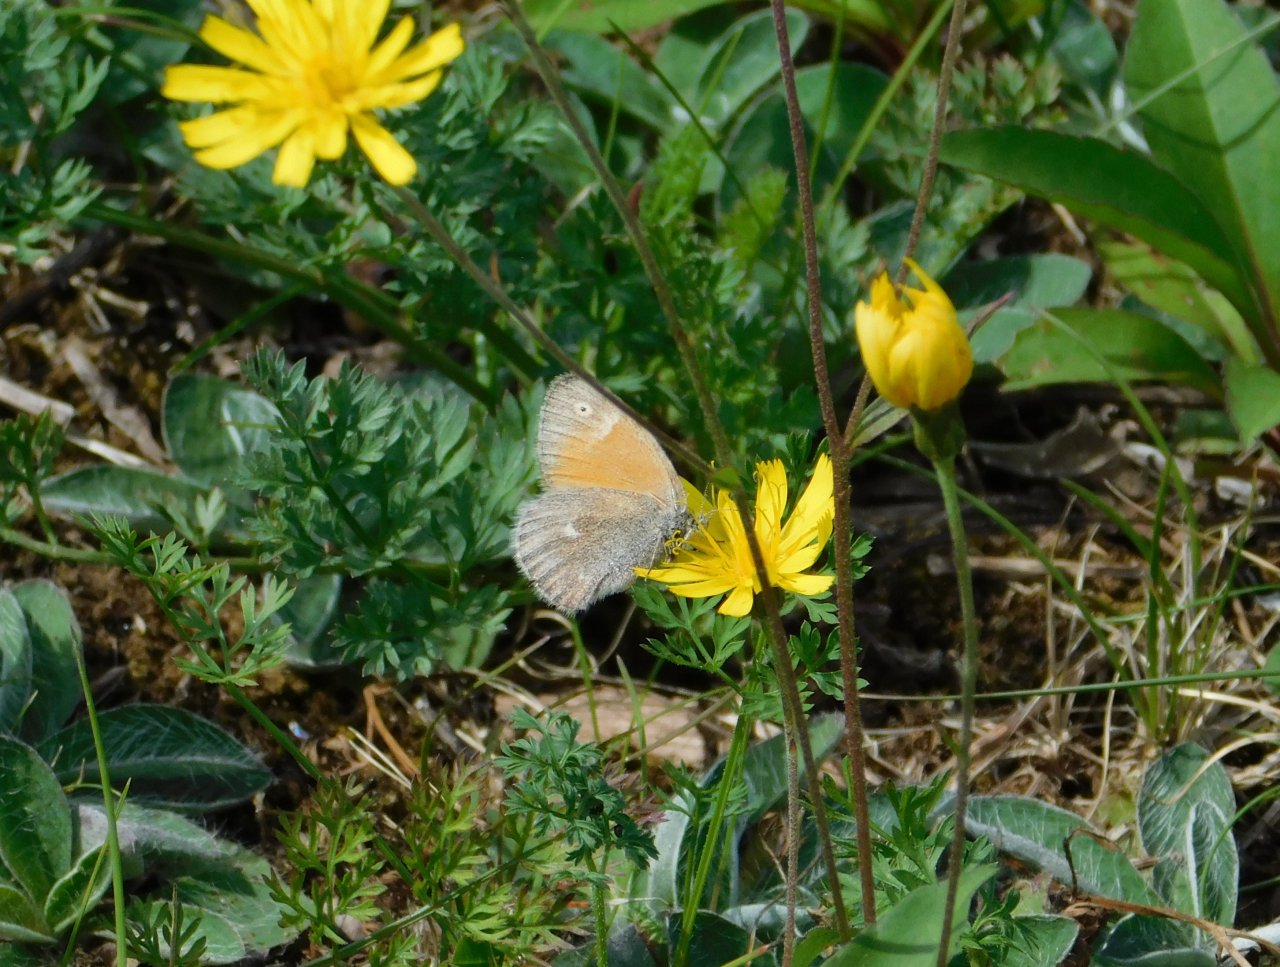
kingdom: Animalia
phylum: Arthropoda
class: Insecta
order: Lepidoptera
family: Nymphalidae
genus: Coenonympha
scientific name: Coenonympha tullia
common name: Large Heath
